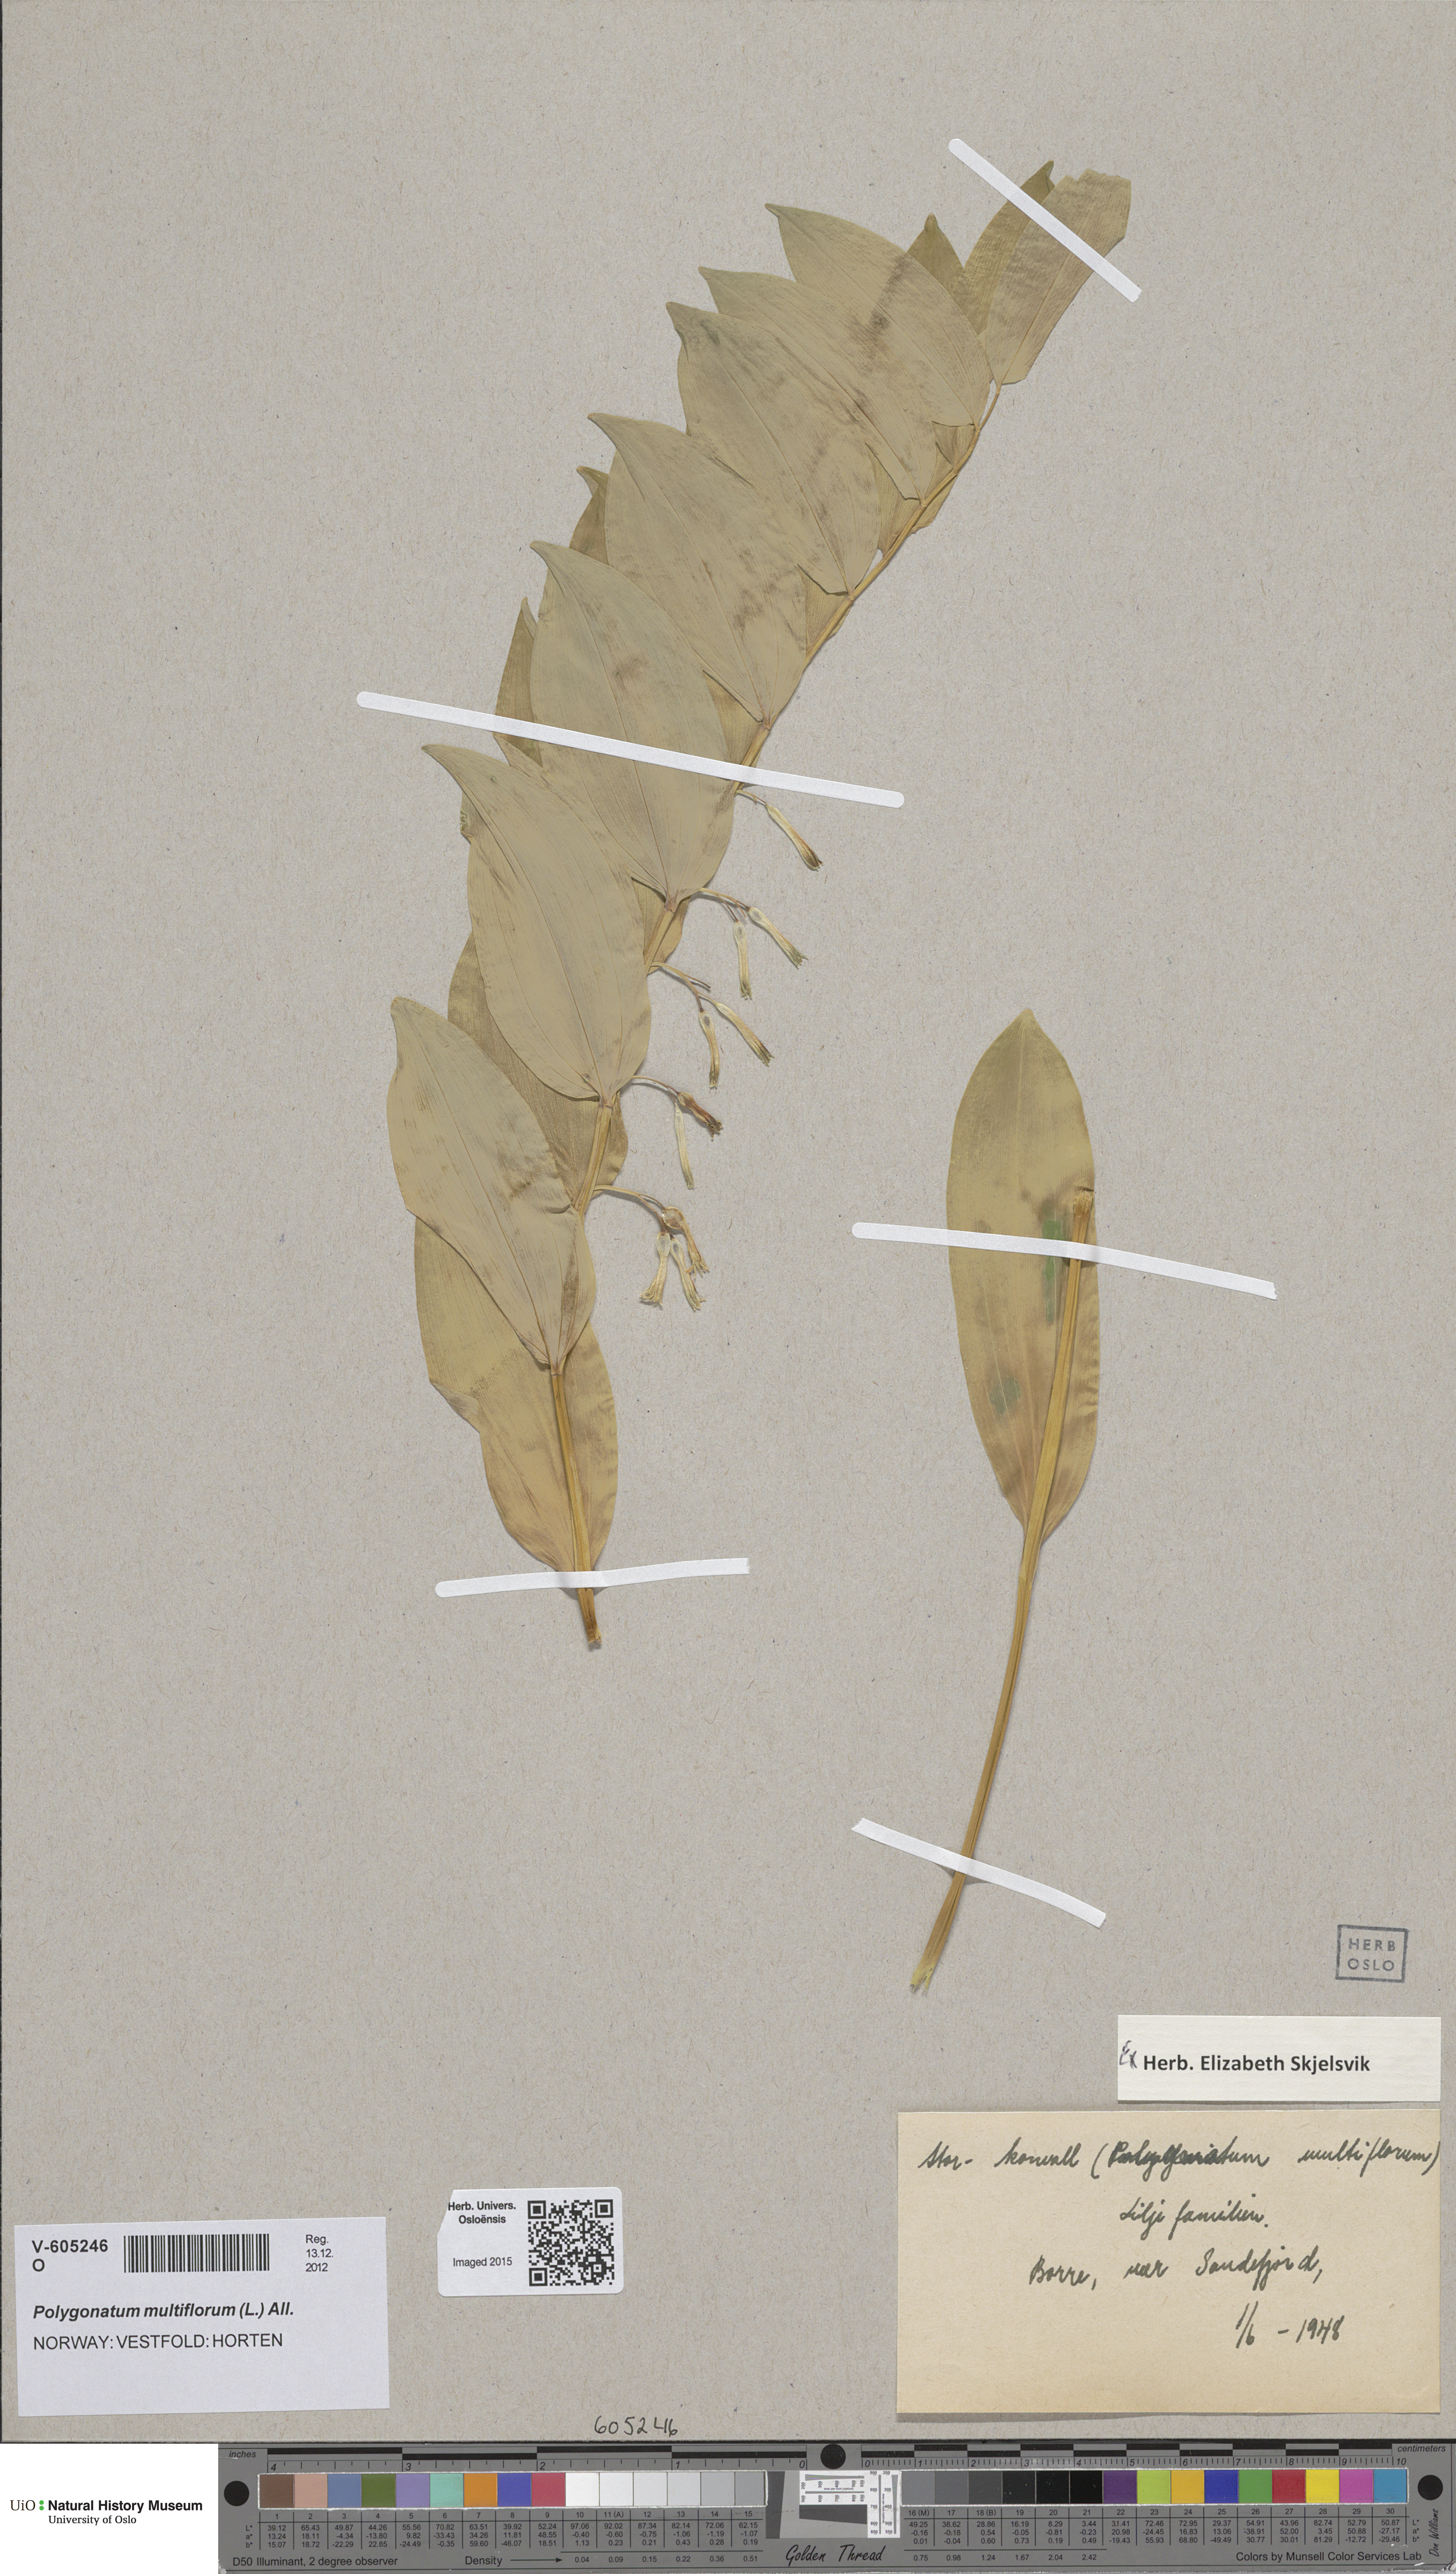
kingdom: Plantae
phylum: Tracheophyta
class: Liliopsida
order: Asparagales
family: Asparagaceae
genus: Polygonatum
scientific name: Polygonatum multiflorum
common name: Solomon's-seal
